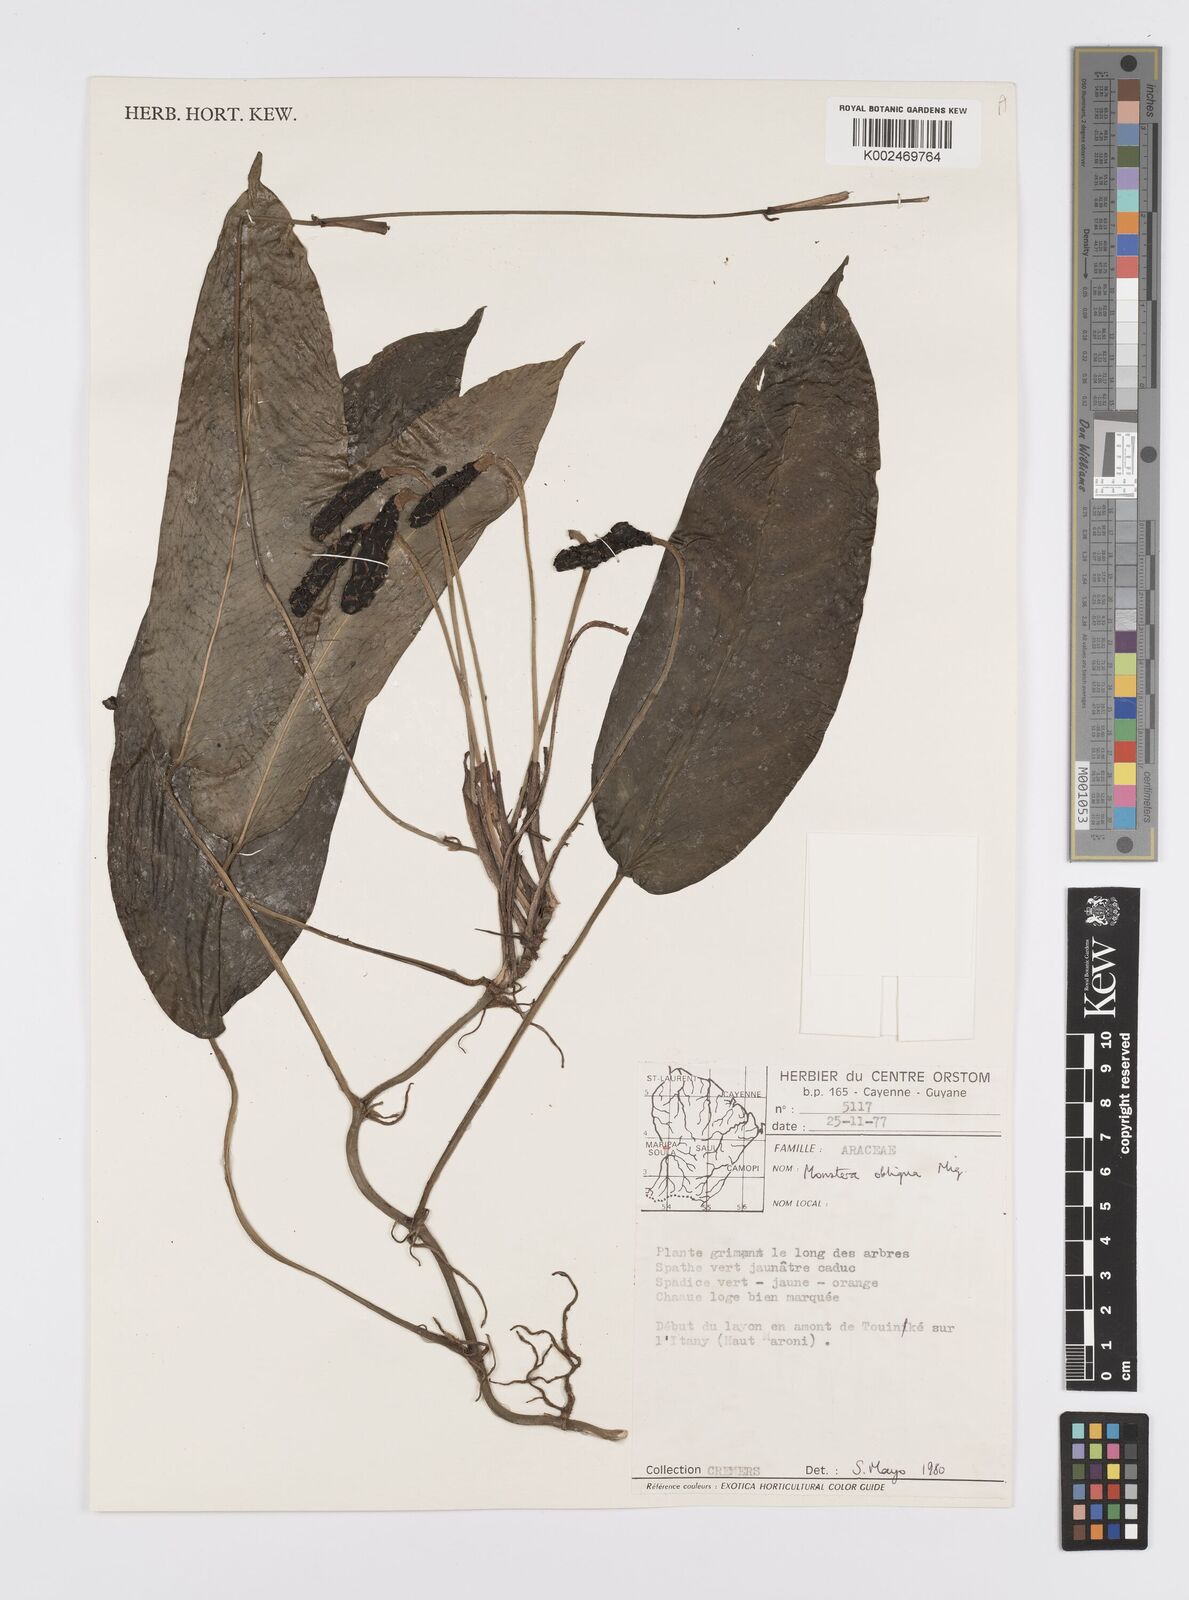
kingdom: Plantae
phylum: Tracheophyta
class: Liliopsida
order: Alismatales
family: Araceae
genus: Monstera
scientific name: Monstera obliqua
